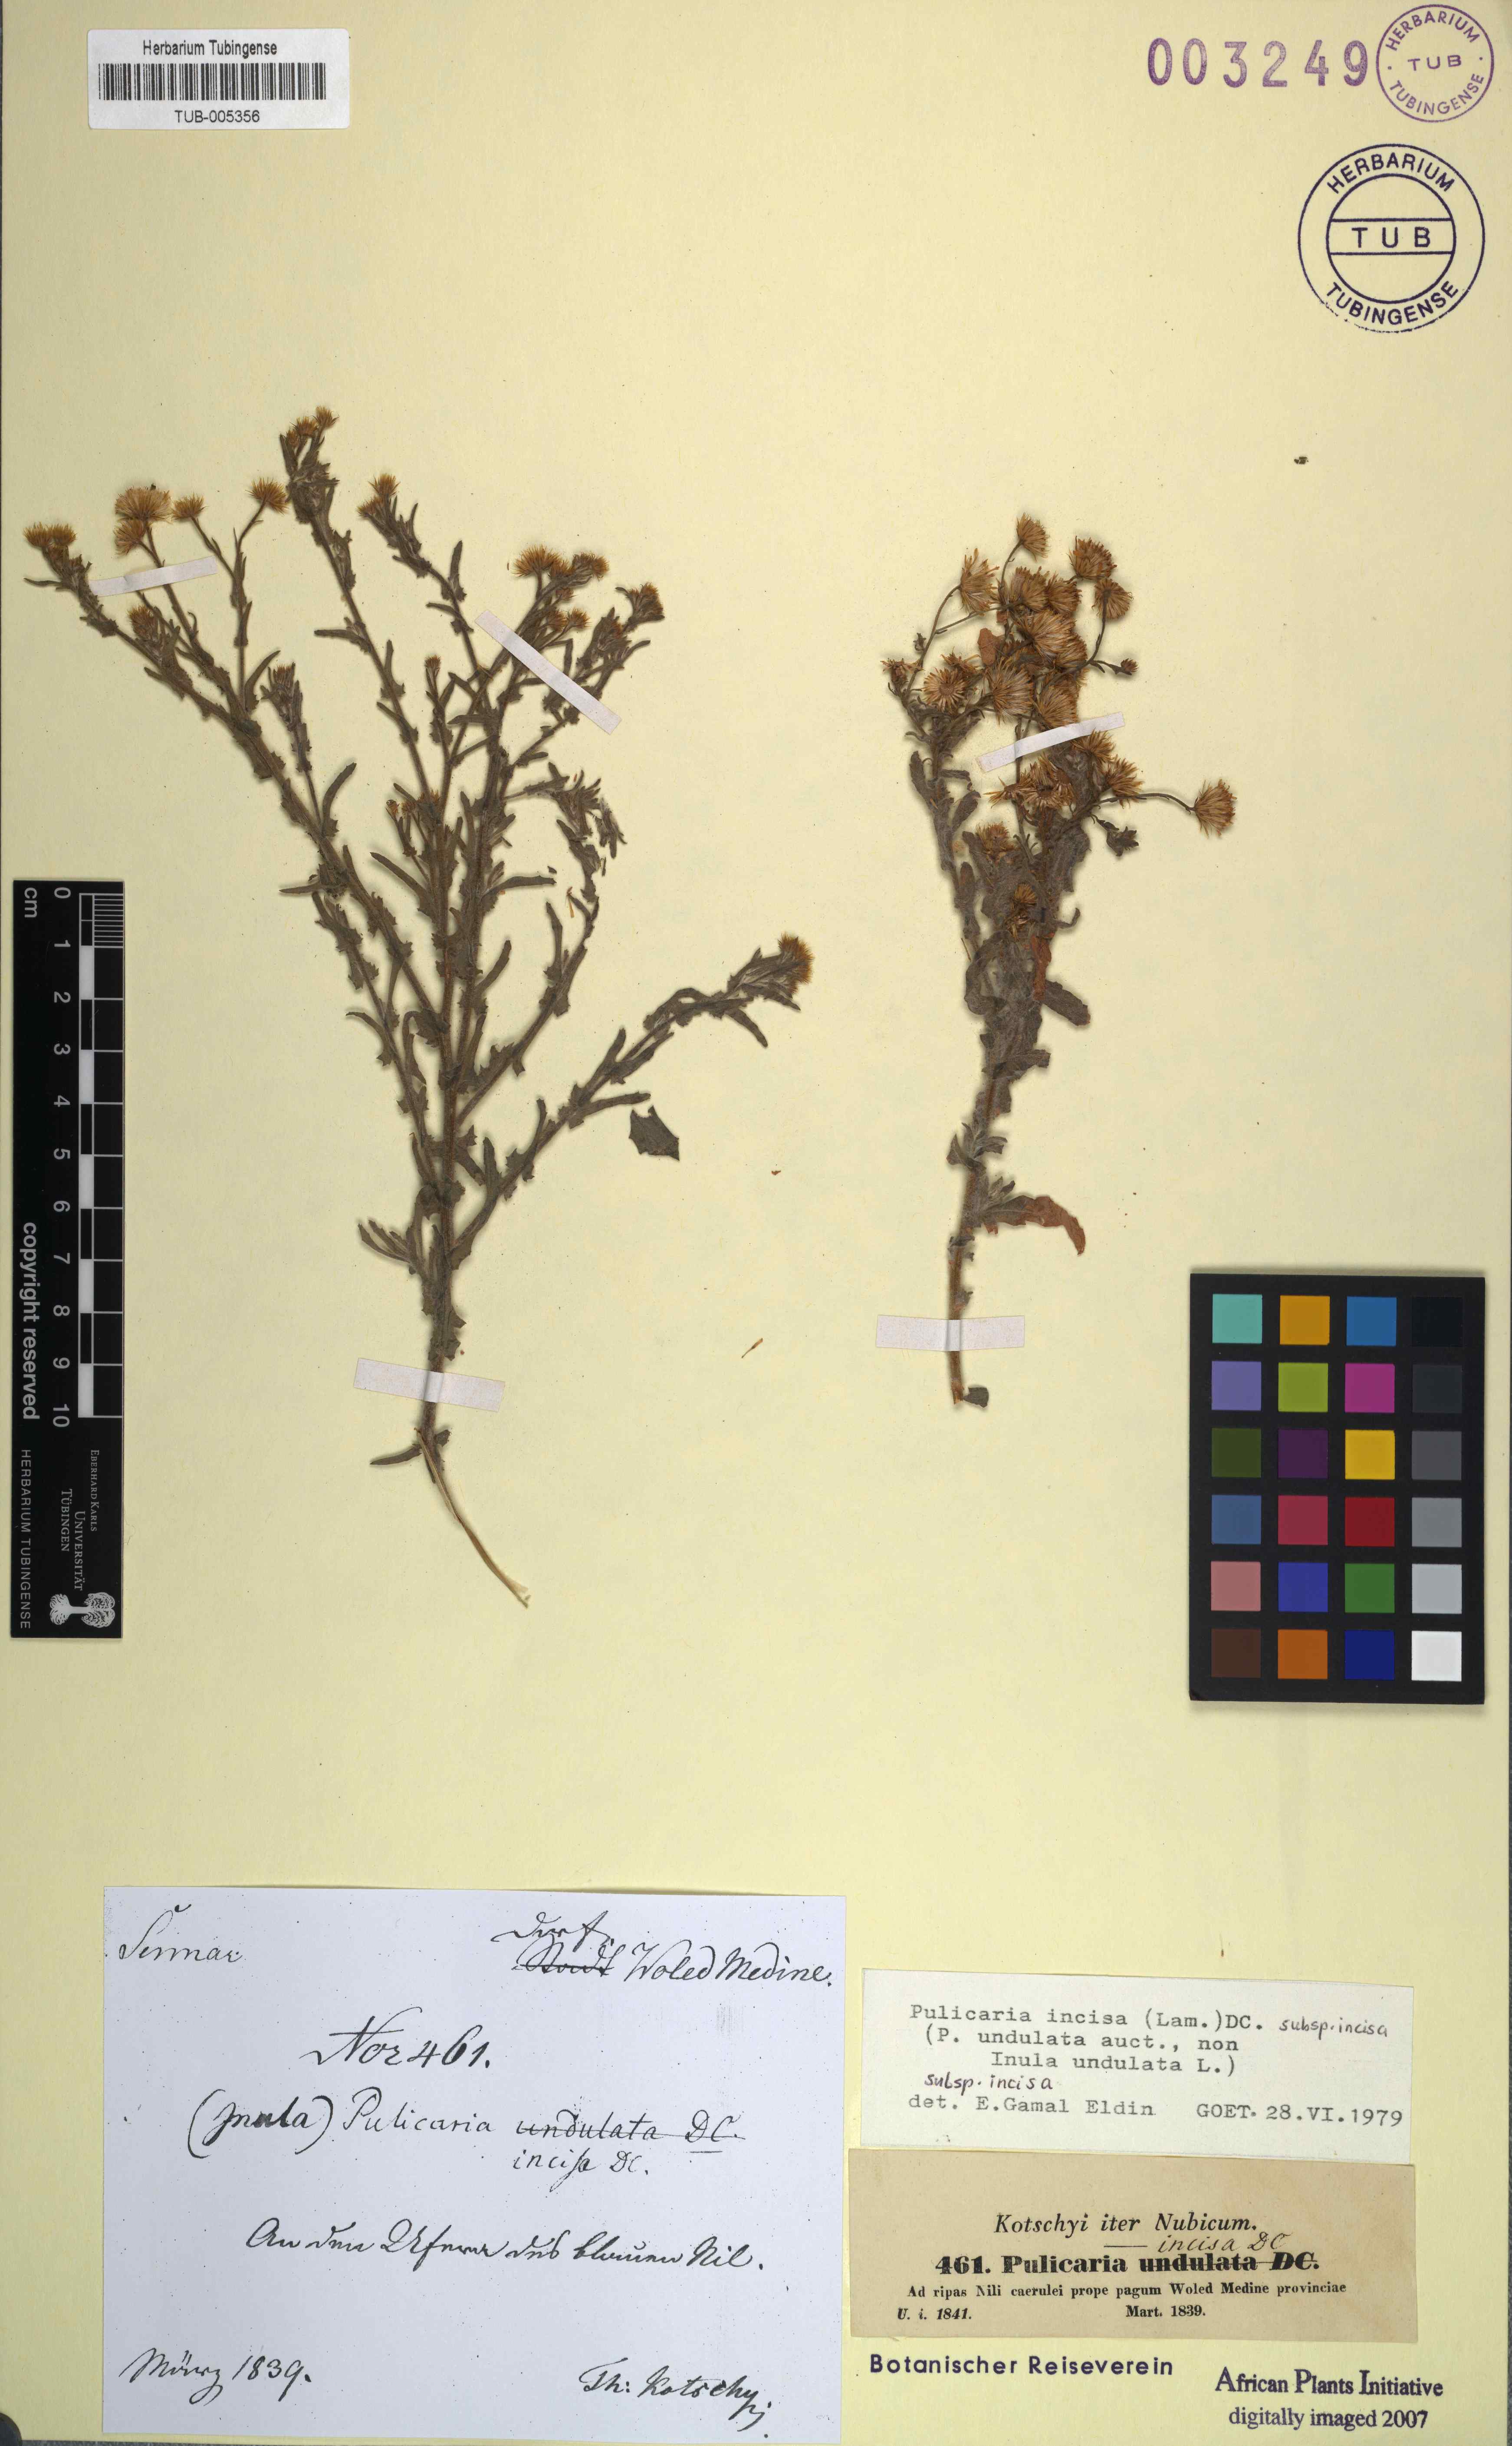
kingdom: Plantae
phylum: Tracheophyta
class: Magnoliopsida
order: Asterales
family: Asteraceae
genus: Pulicaria
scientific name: Pulicaria incisa
